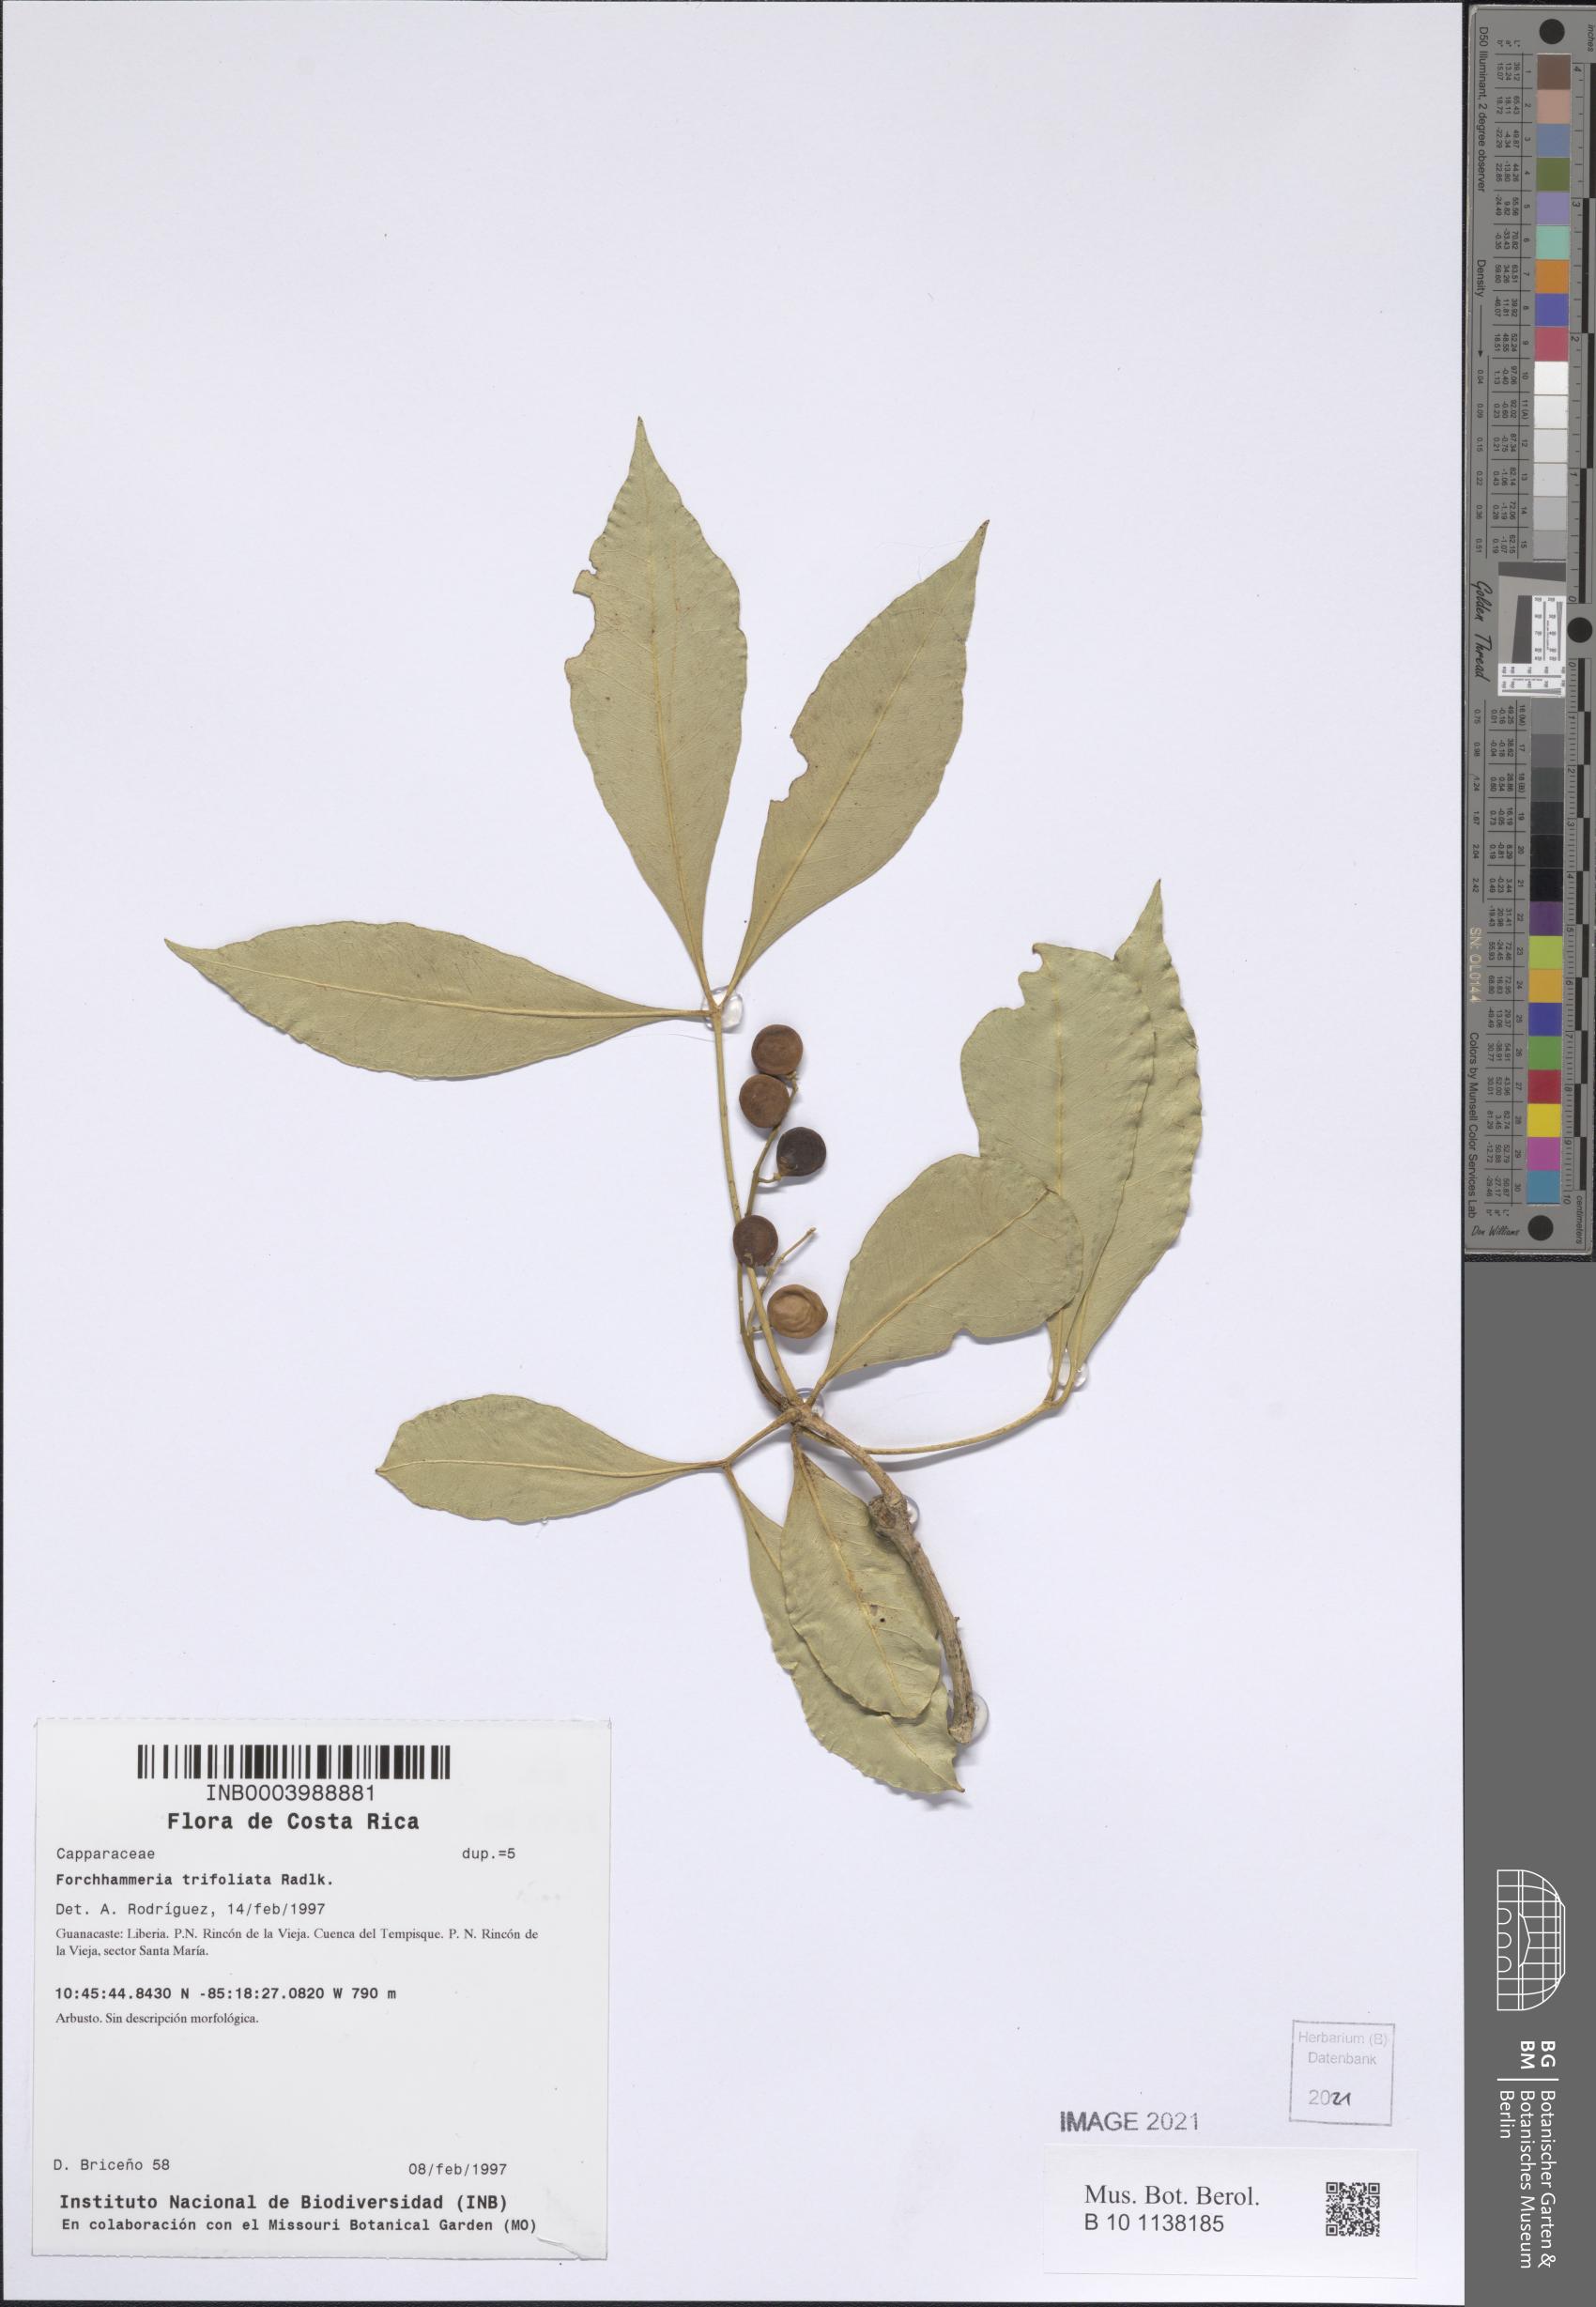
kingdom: Plantae
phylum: Tracheophyta
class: Magnoliopsida
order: Brassicales
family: Stixaceae
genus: Forchhammeria
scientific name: Forchhammeria trifoliata
